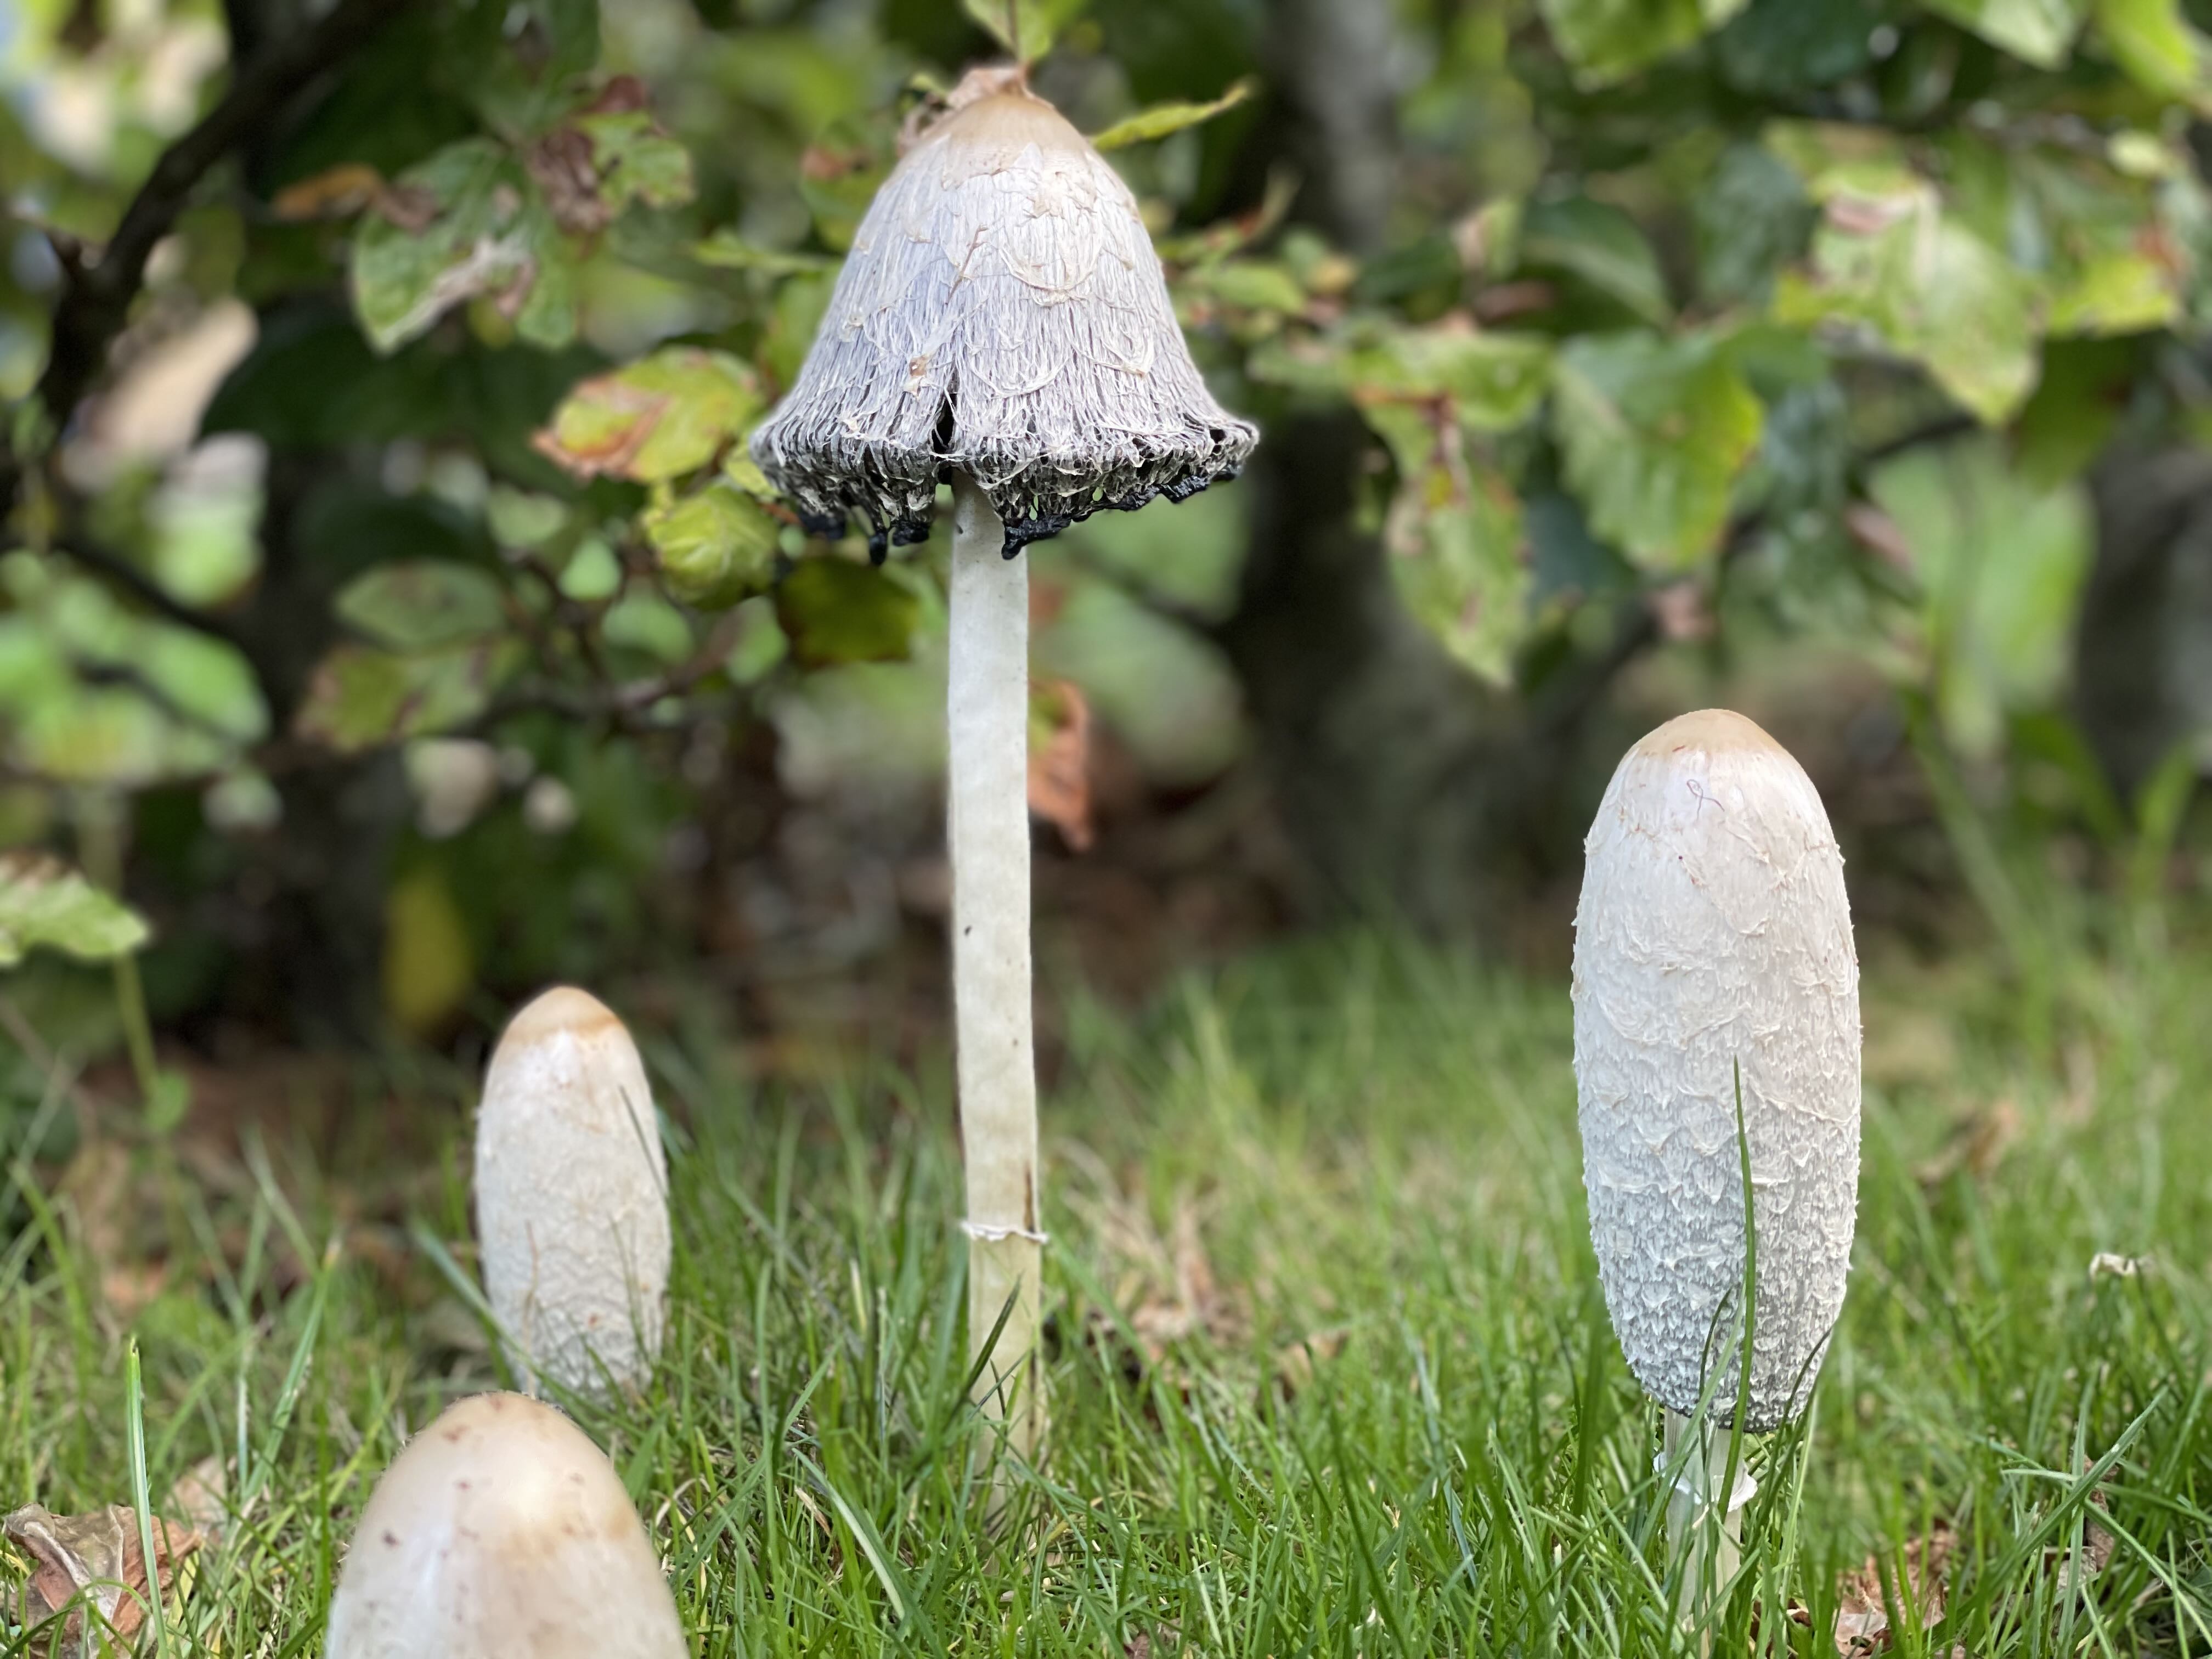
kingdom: Fungi
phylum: Basidiomycota
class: Agaricomycetes
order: Agaricales
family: Agaricaceae
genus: Coprinus
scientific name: Coprinus comatus
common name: stor parykhat
